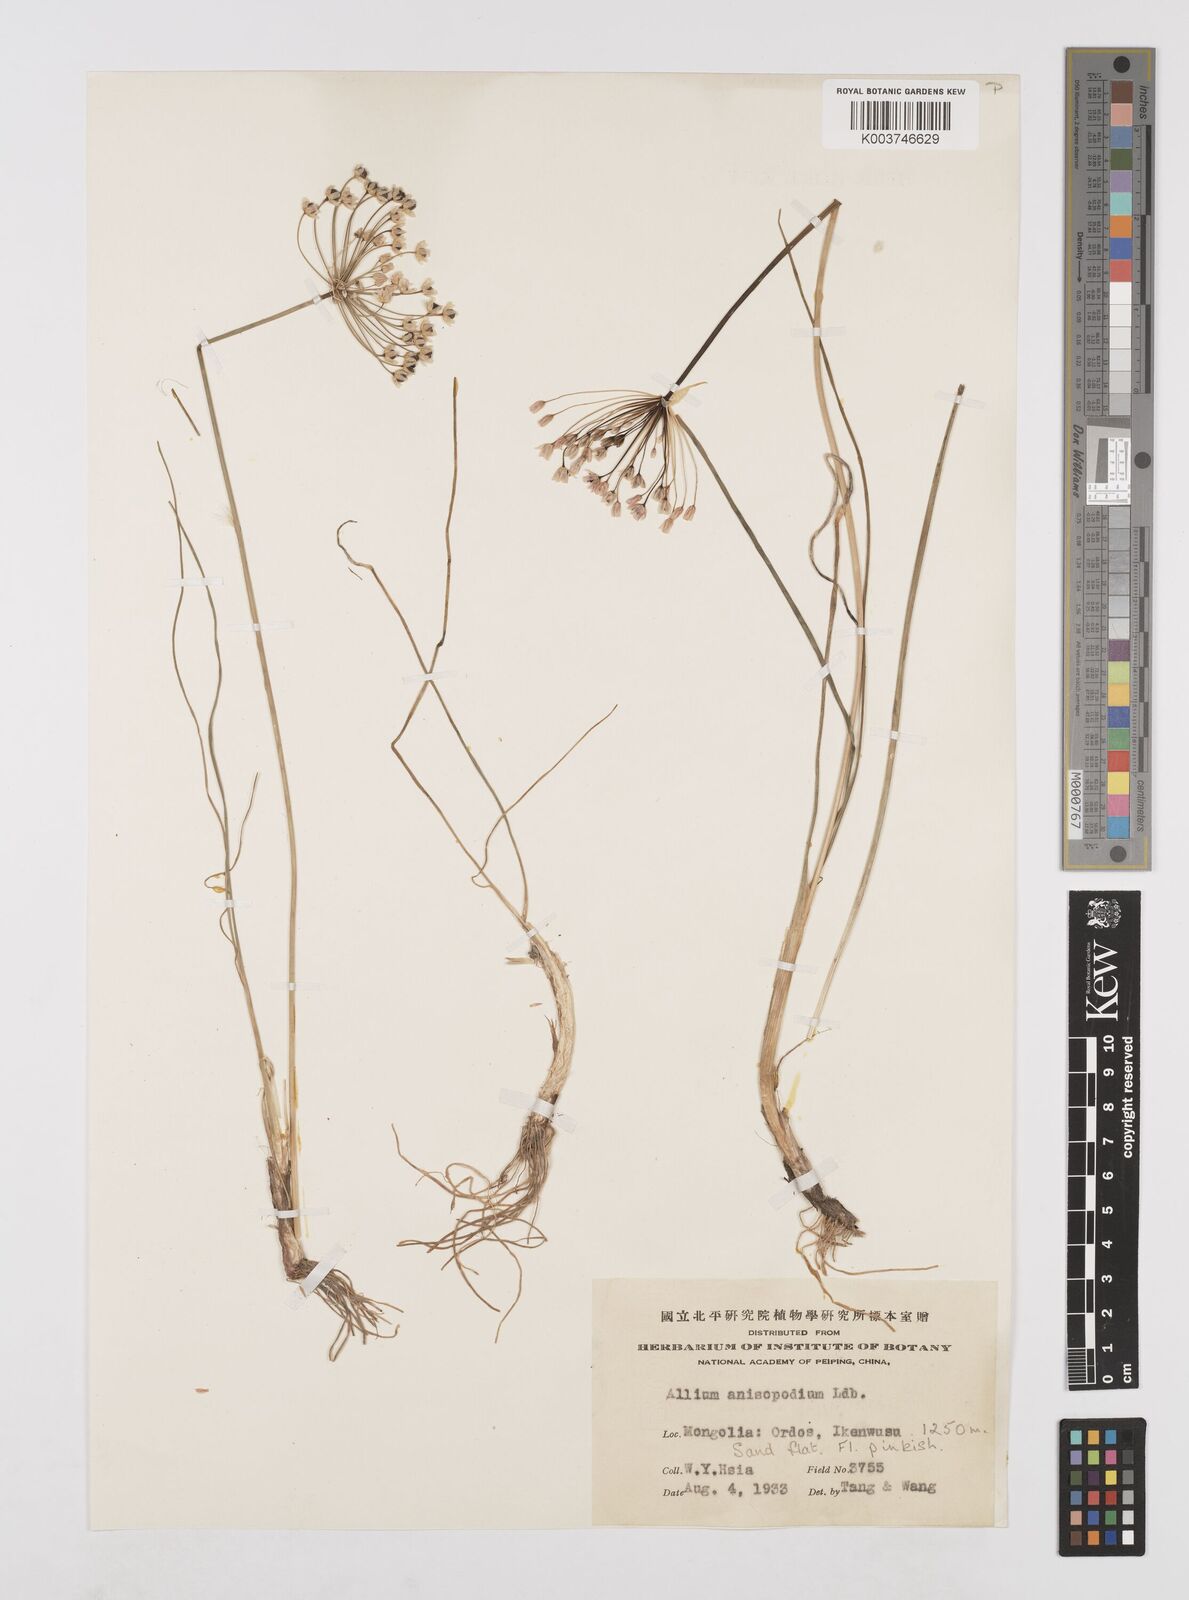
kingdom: Plantae
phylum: Tracheophyta
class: Liliopsida
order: Asparagales
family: Amaryllidaceae
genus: Allium
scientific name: Allium anisopodium
